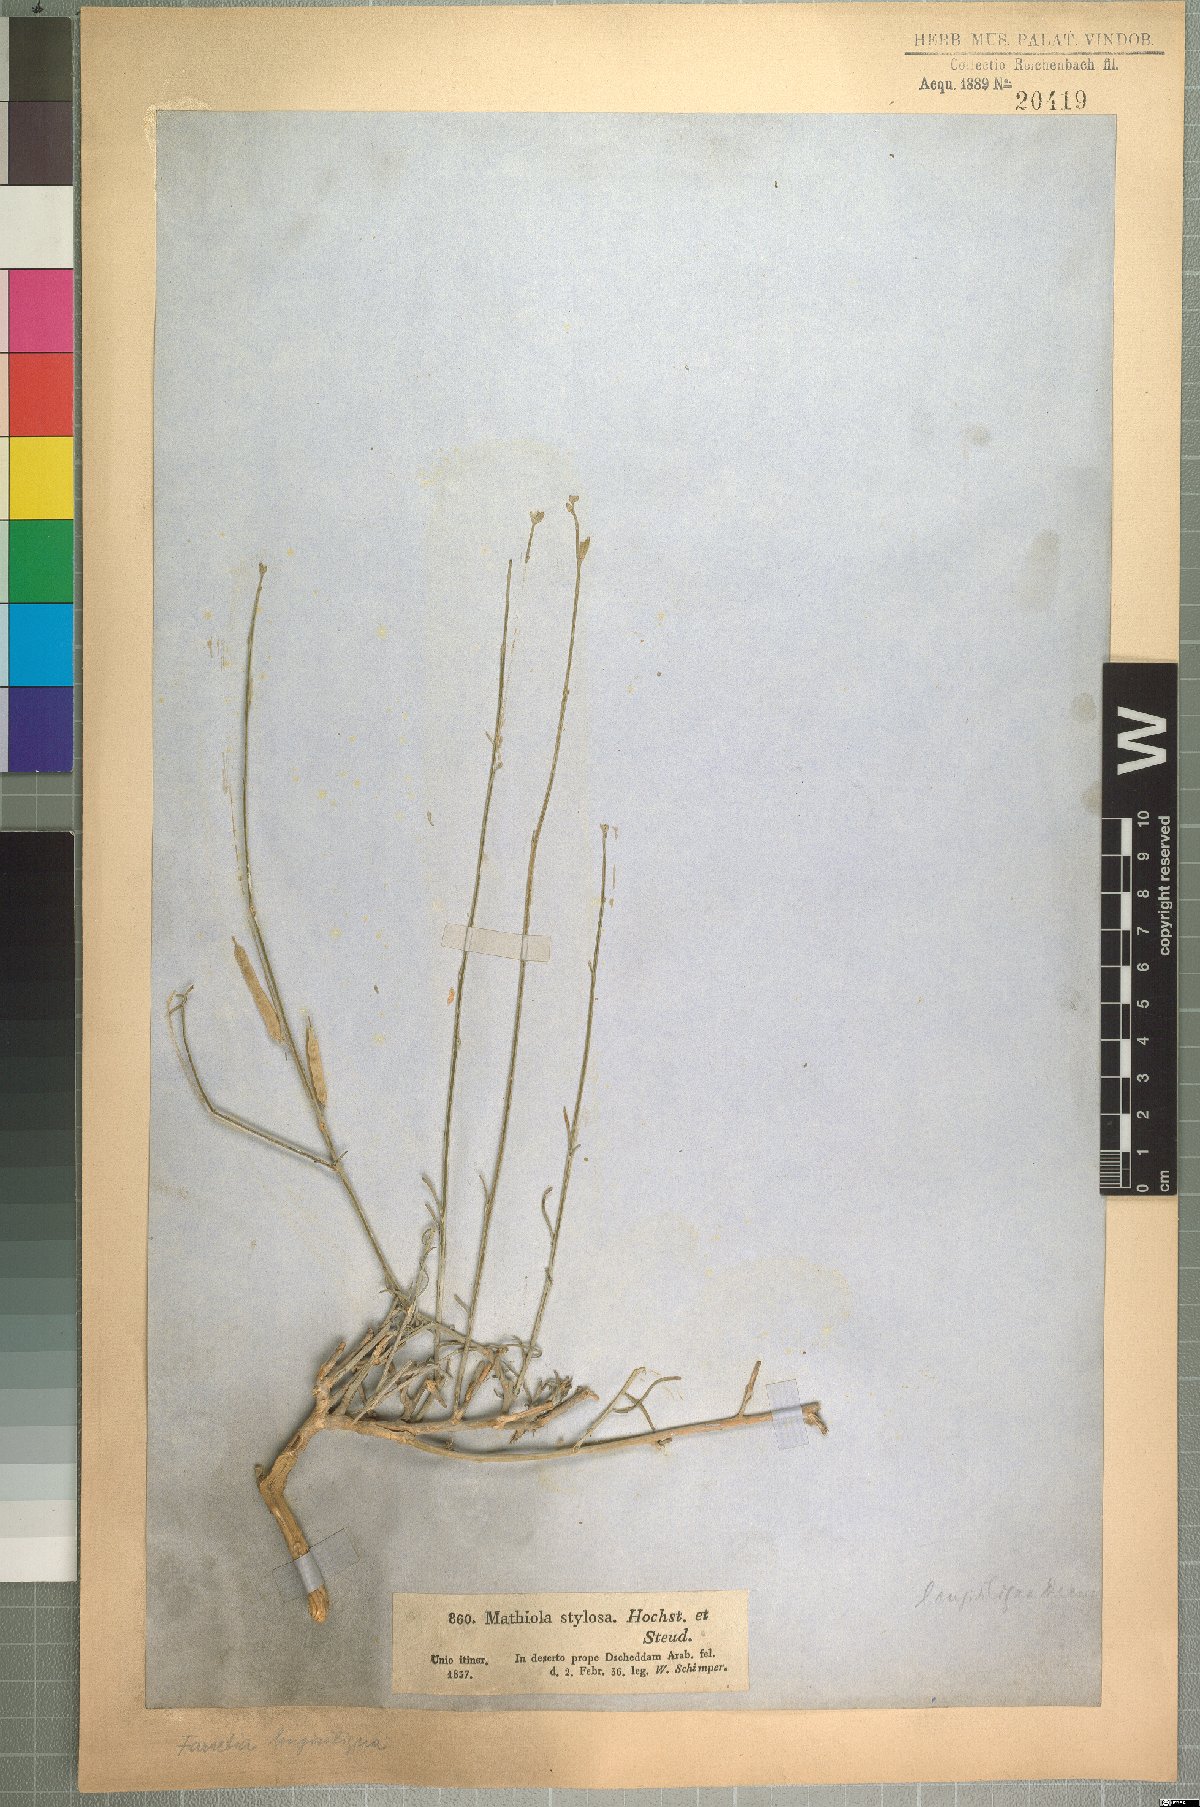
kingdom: Plantae
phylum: Tracheophyta
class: Magnoliopsida
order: Brassicales
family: Brassicaceae
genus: Farsetia
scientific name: Farsetia longisiliqua
